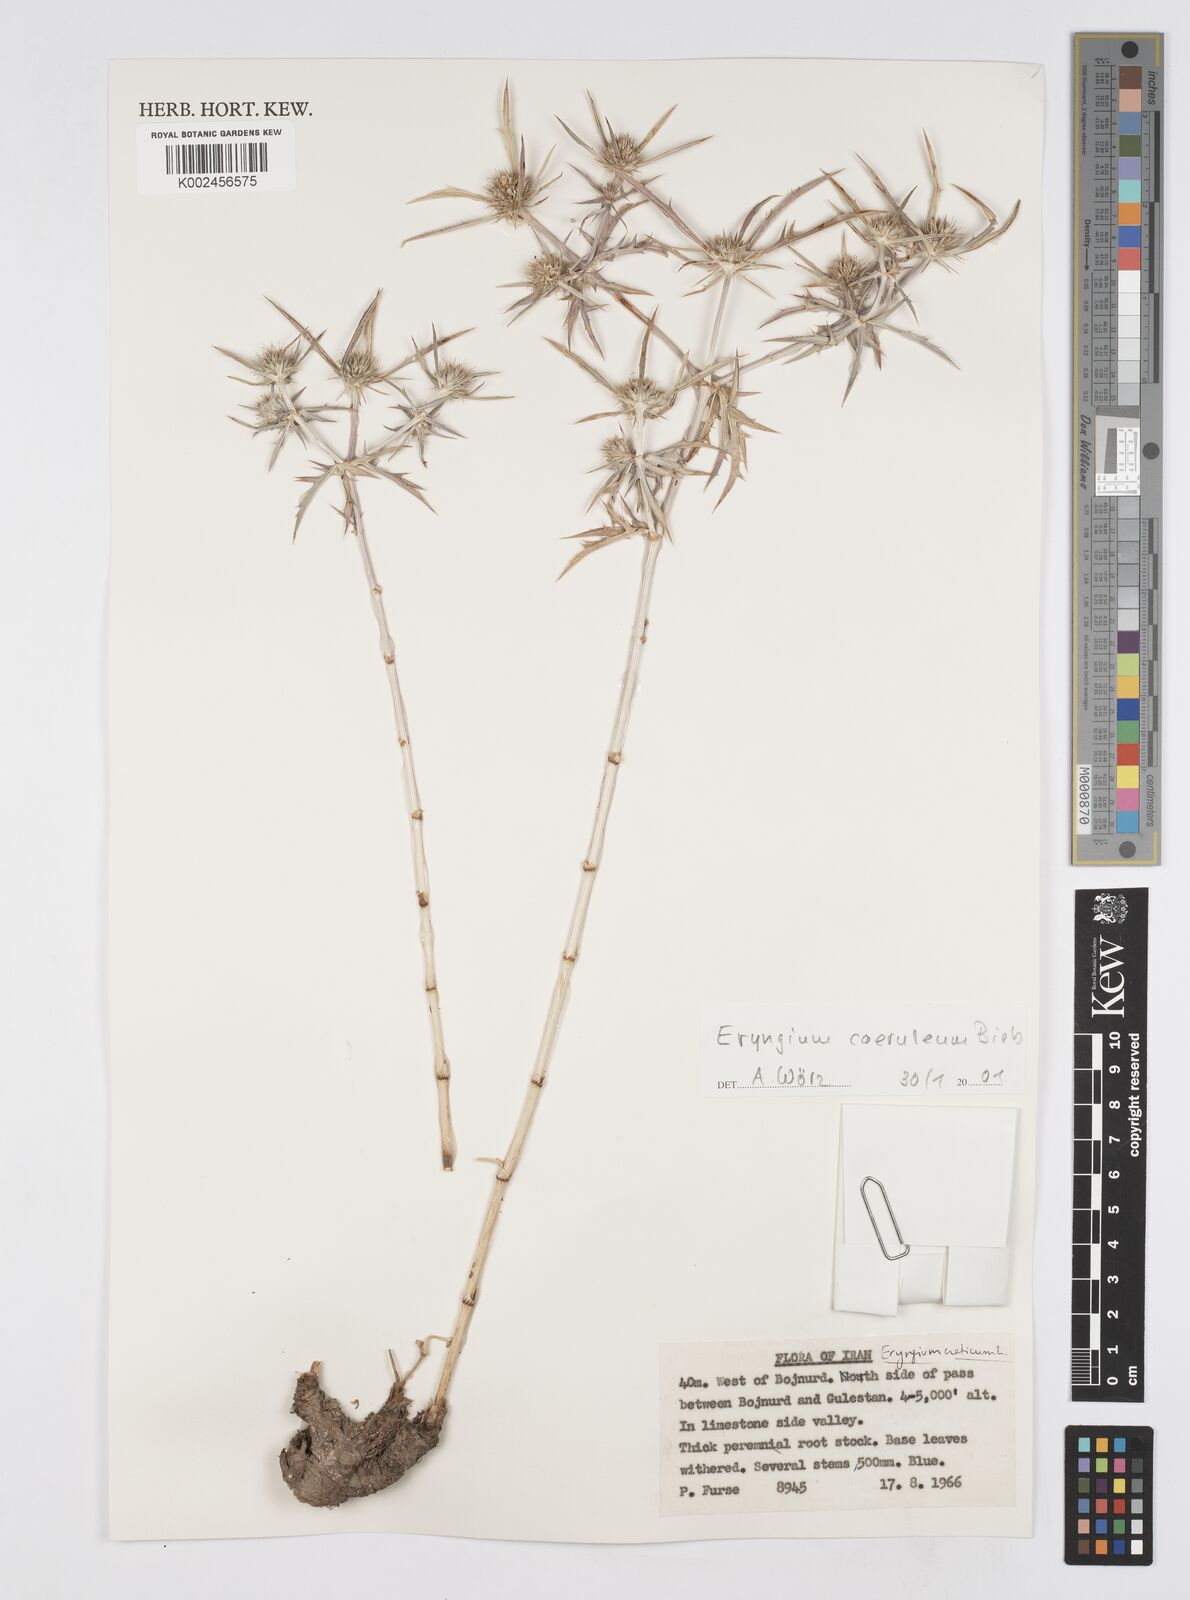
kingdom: Plantae
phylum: Tracheophyta
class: Magnoliopsida
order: Apiales
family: Apiaceae
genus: Eryngium
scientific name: Eryngium caeruleum
